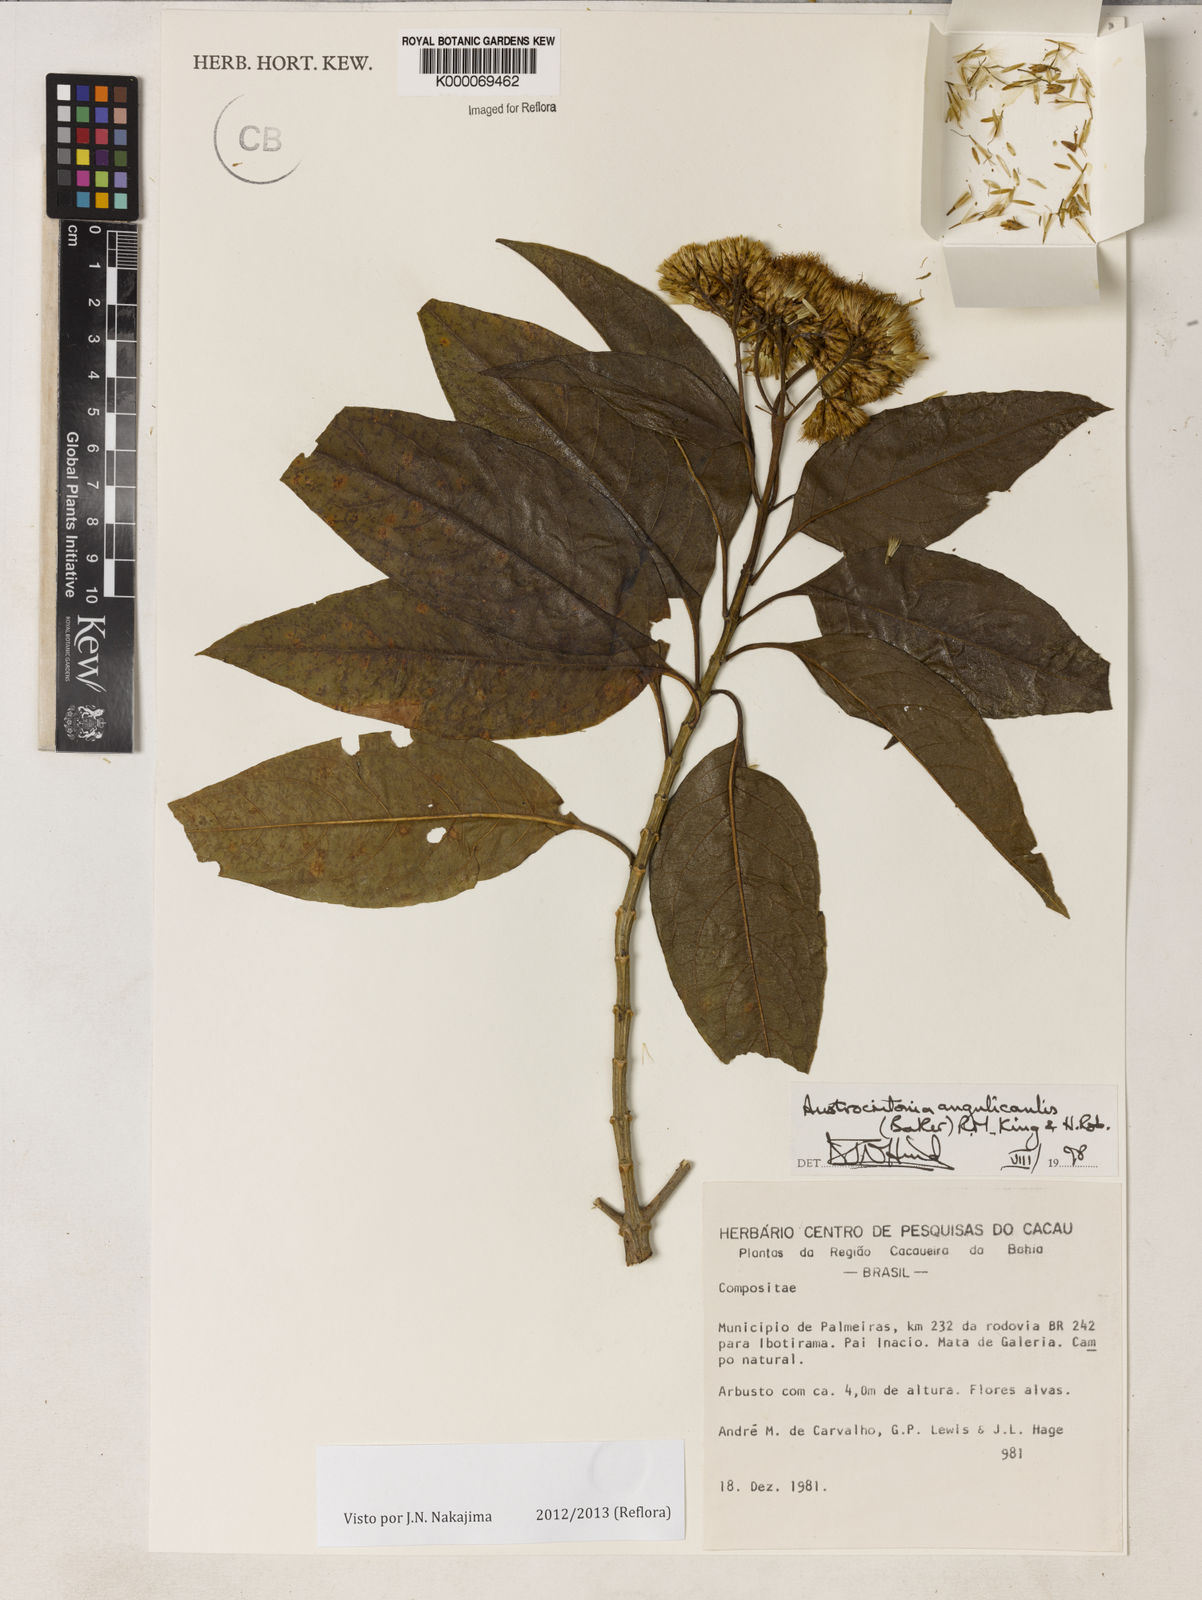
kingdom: Plantae
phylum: Tracheophyta
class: Magnoliopsida
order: Asterales
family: Asteraceae
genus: Austrocritonia
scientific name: Austrocritonia angulicaulis
